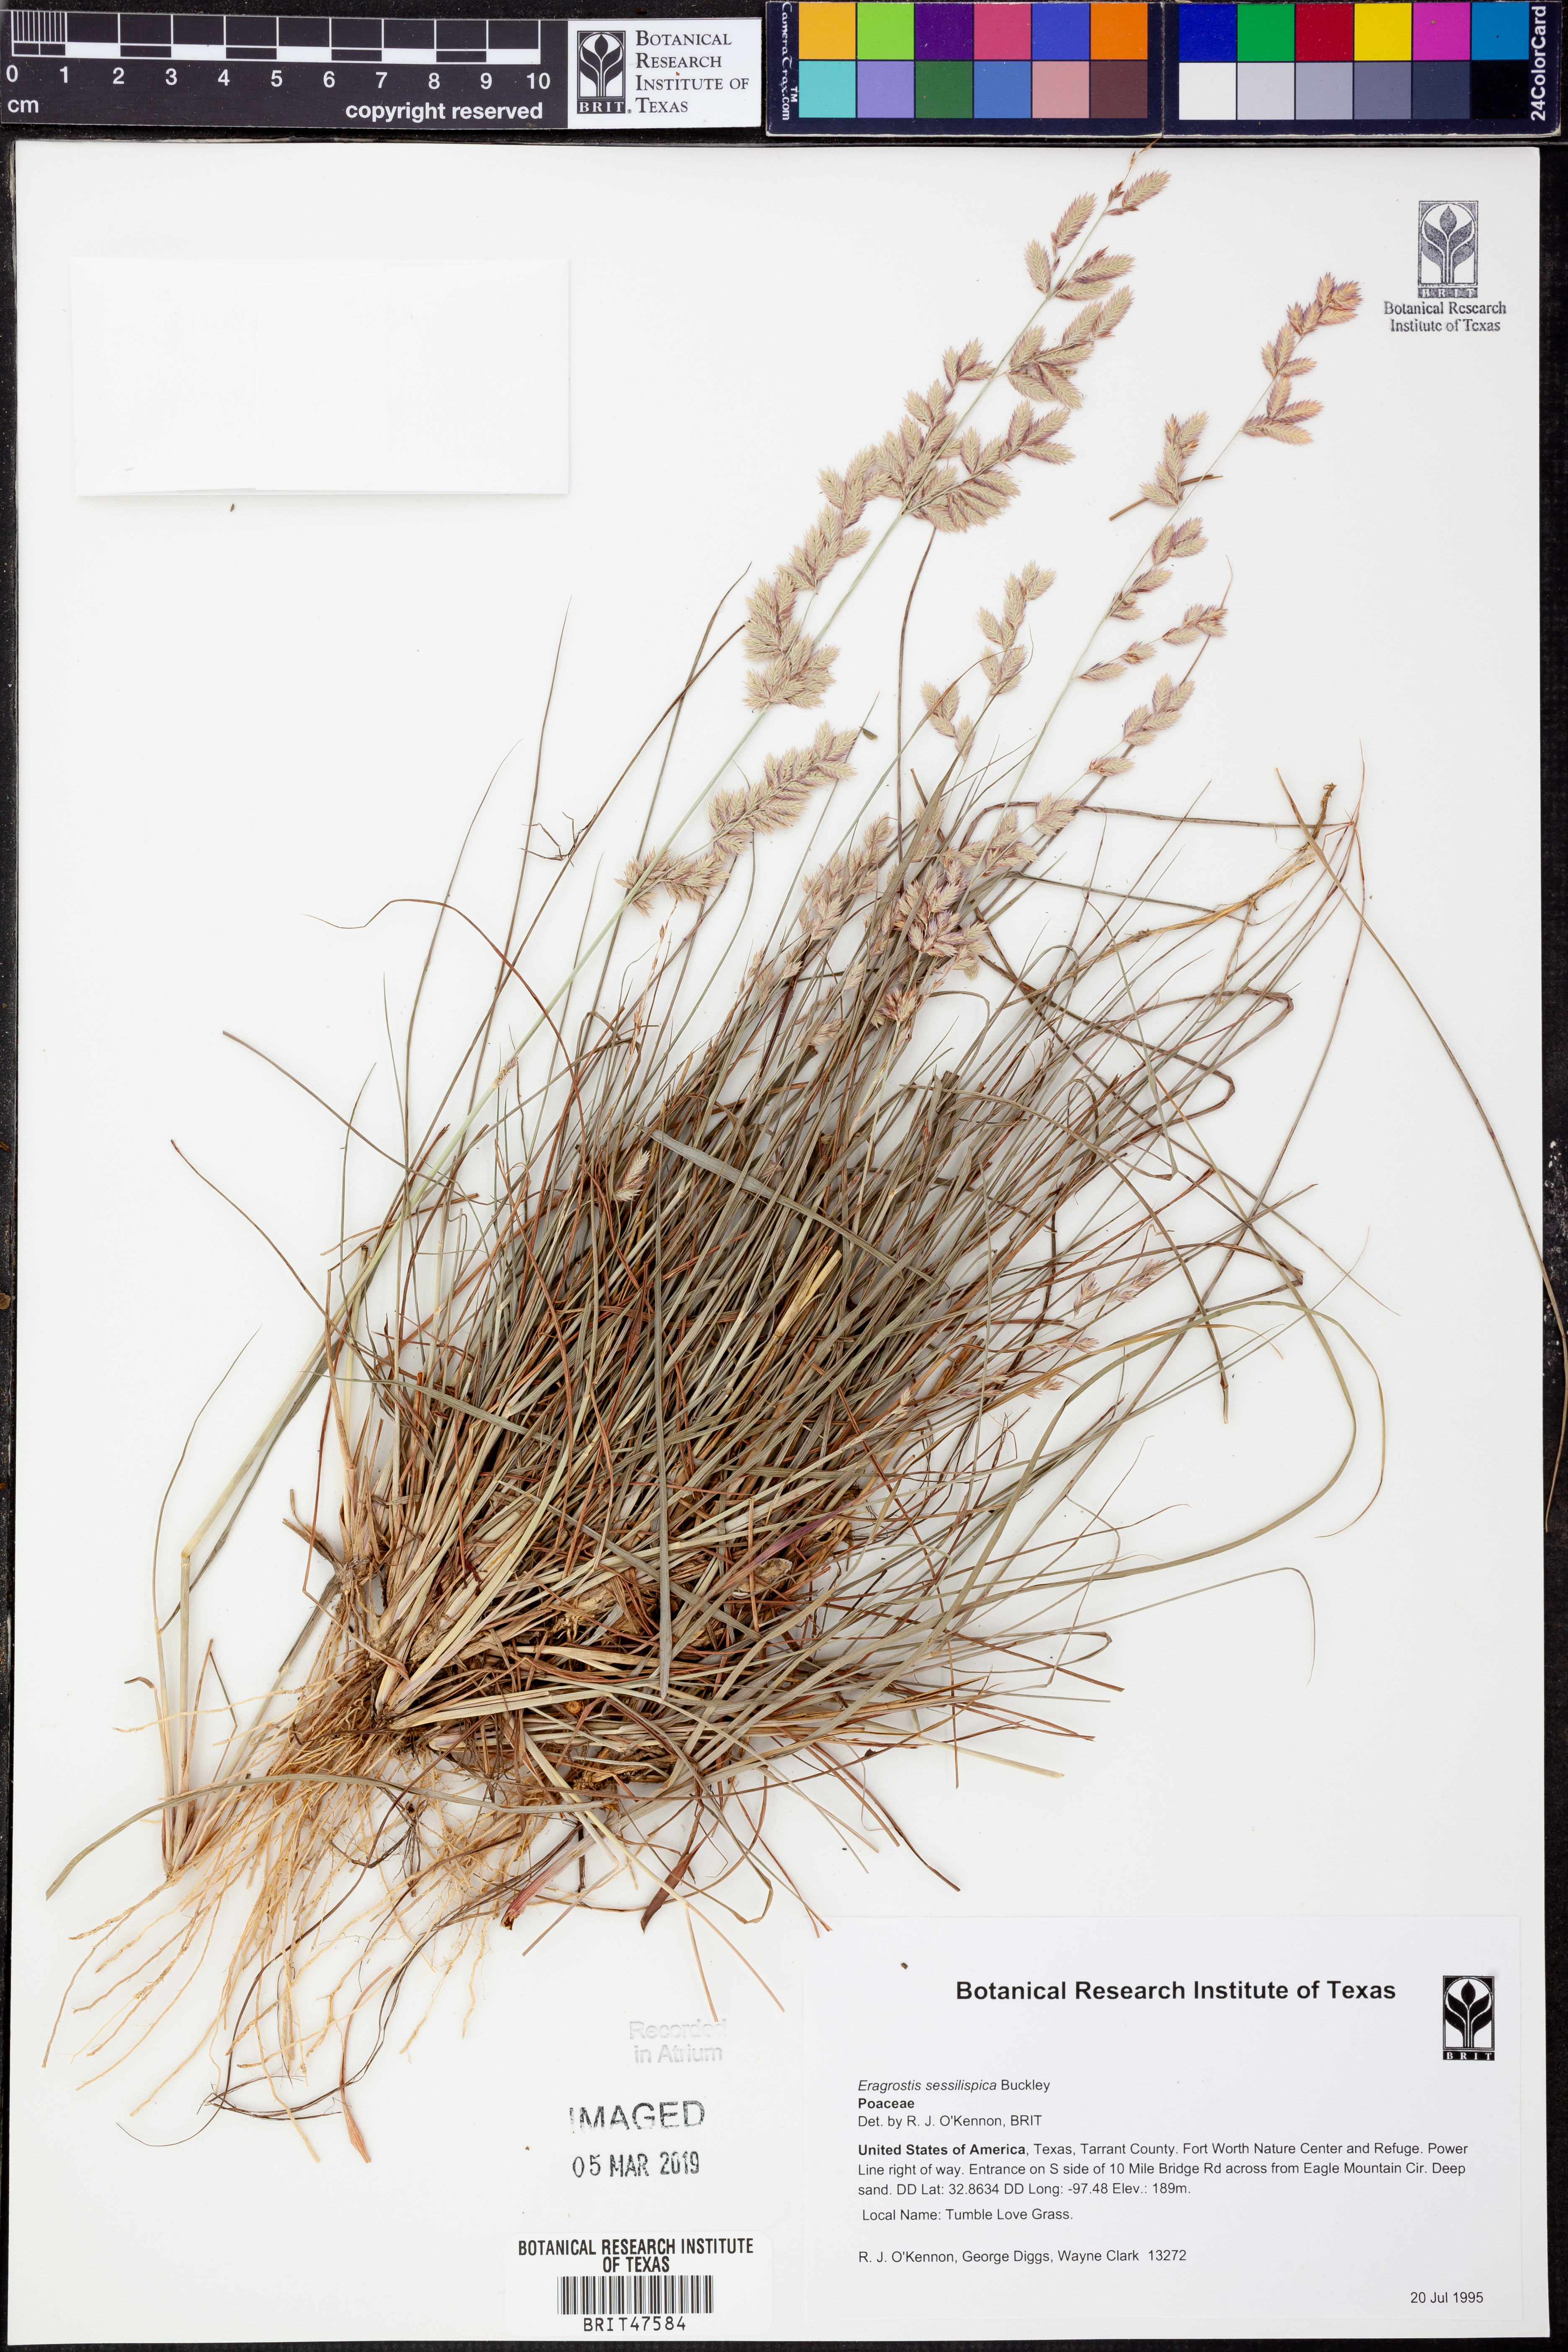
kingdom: Plantae
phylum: Tracheophyta
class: Liliopsida
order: Poales
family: Poaceae
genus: Eragrostis
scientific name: Eragrostis sessilispica
